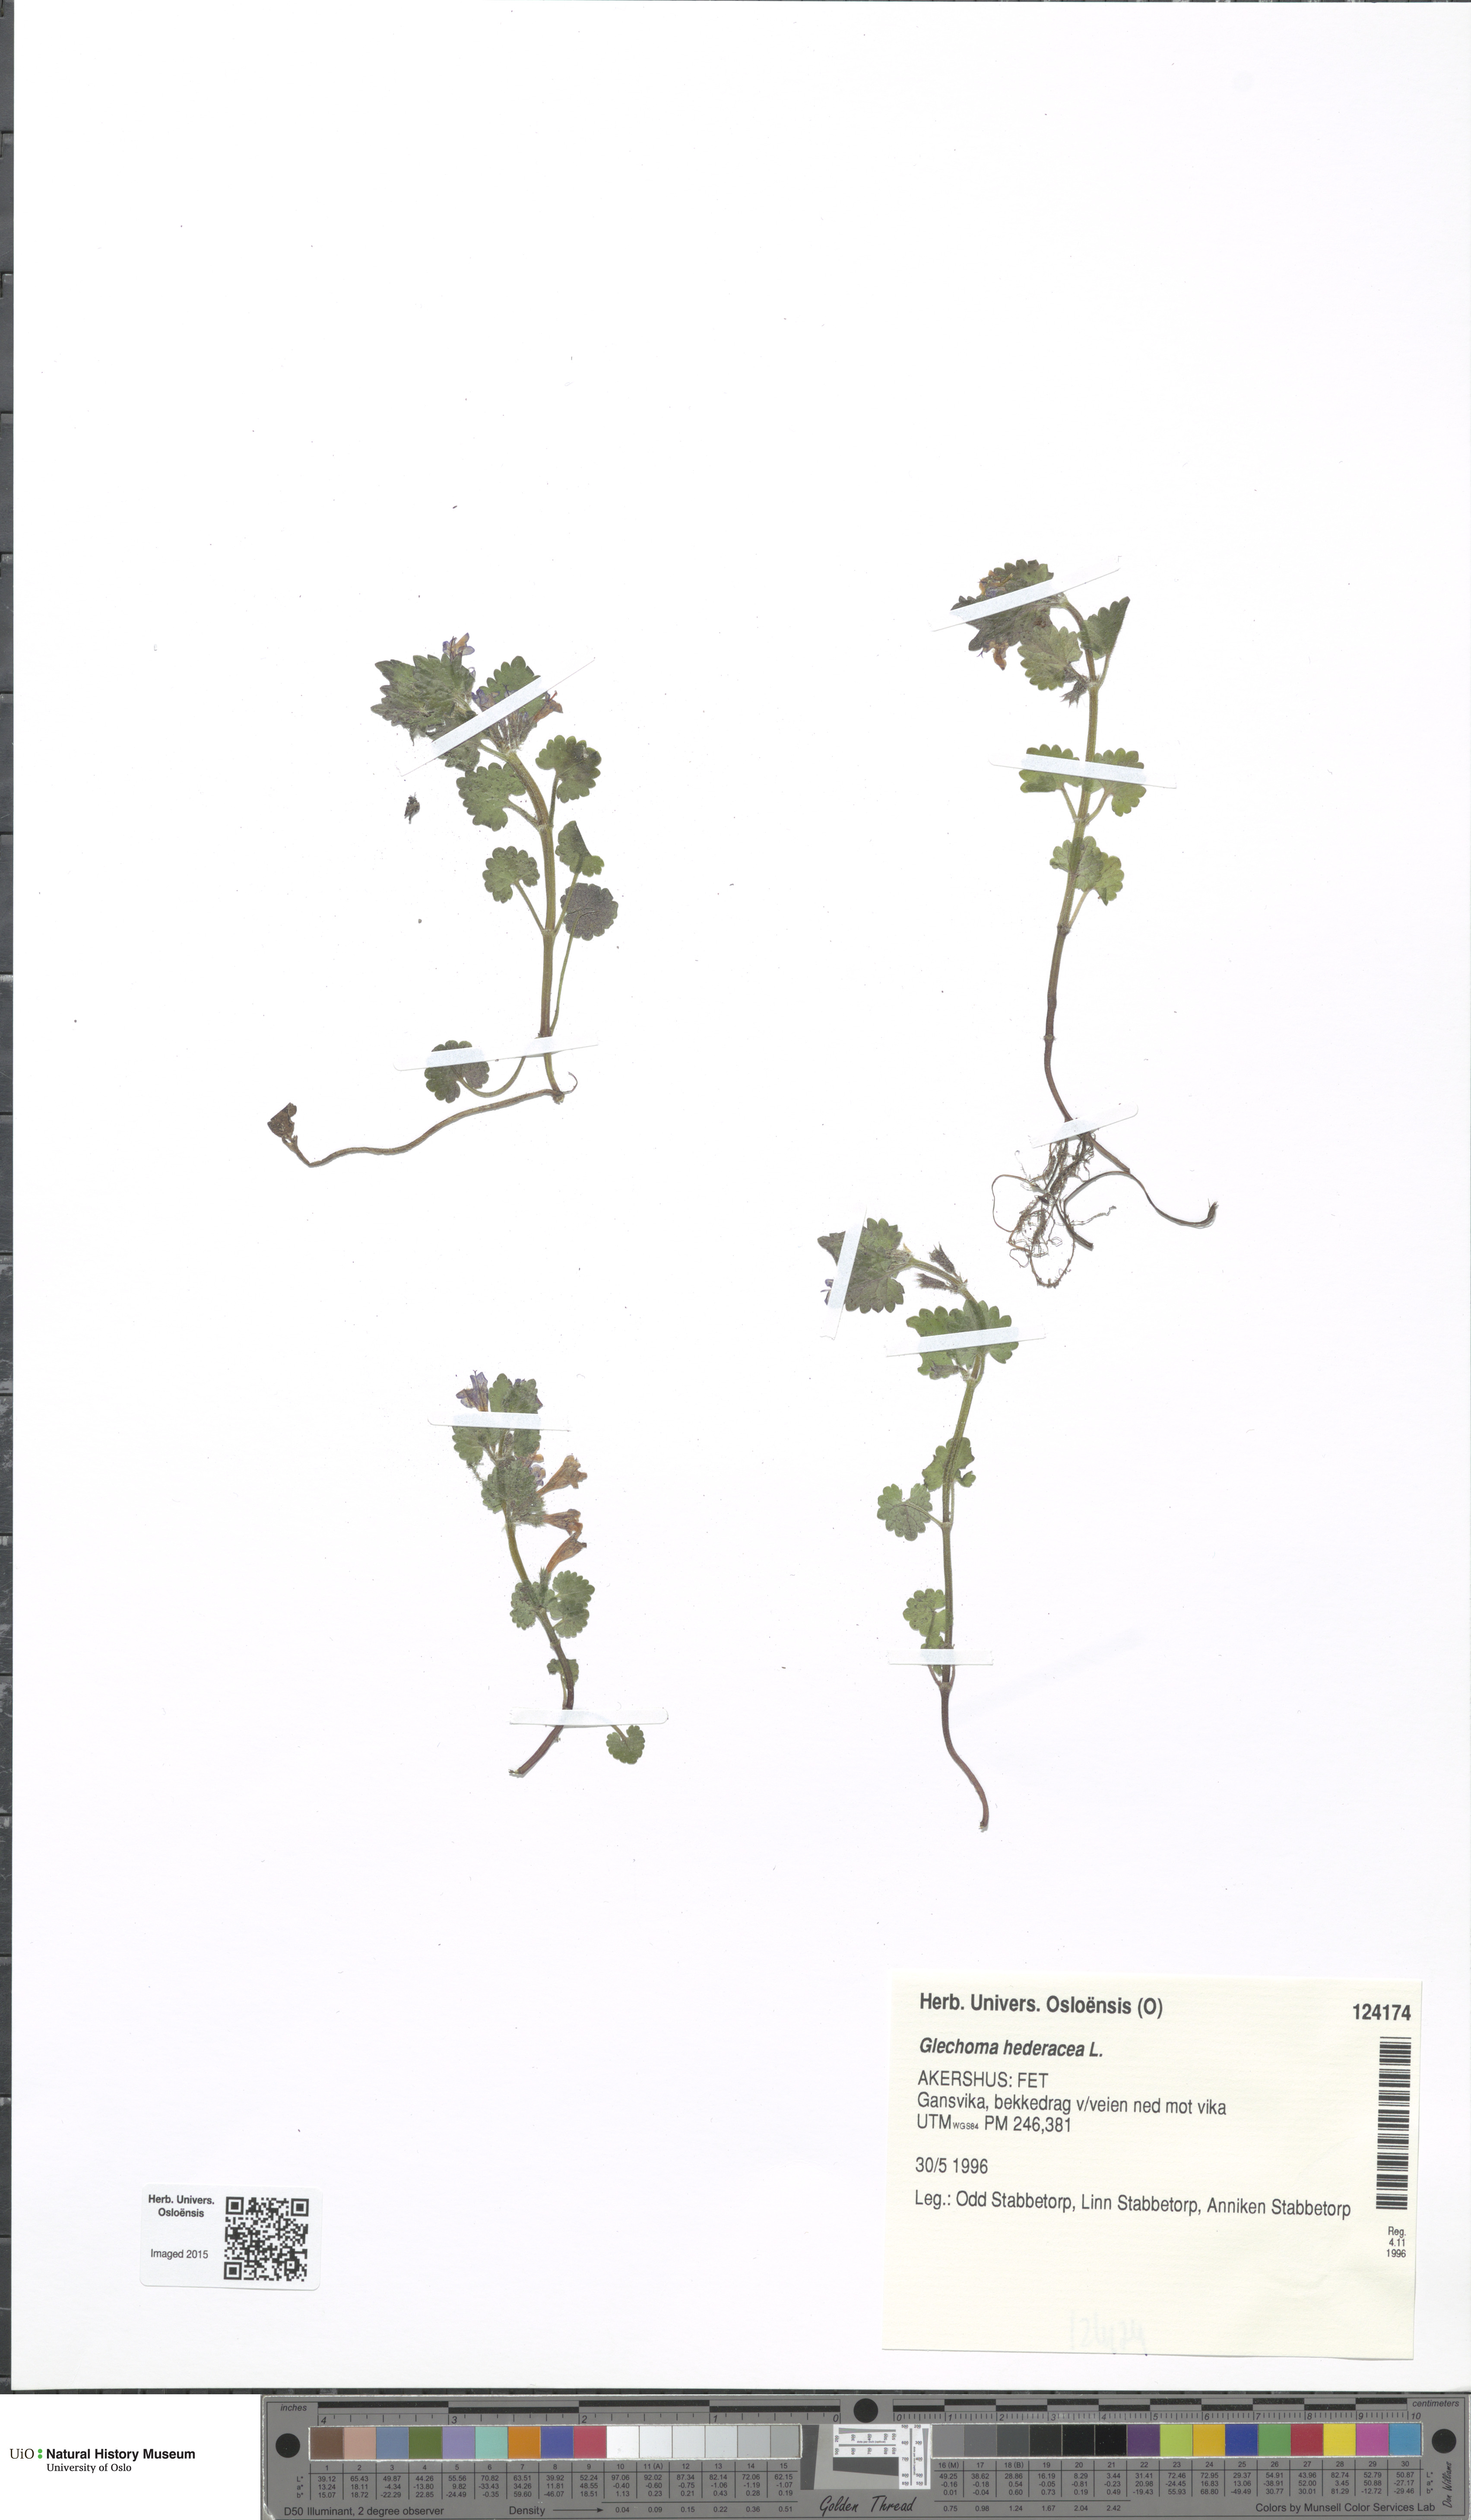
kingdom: Plantae
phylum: Tracheophyta
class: Magnoliopsida
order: Lamiales
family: Lamiaceae
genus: Glechoma
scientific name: Glechoma hederacea
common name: Ground ivy
